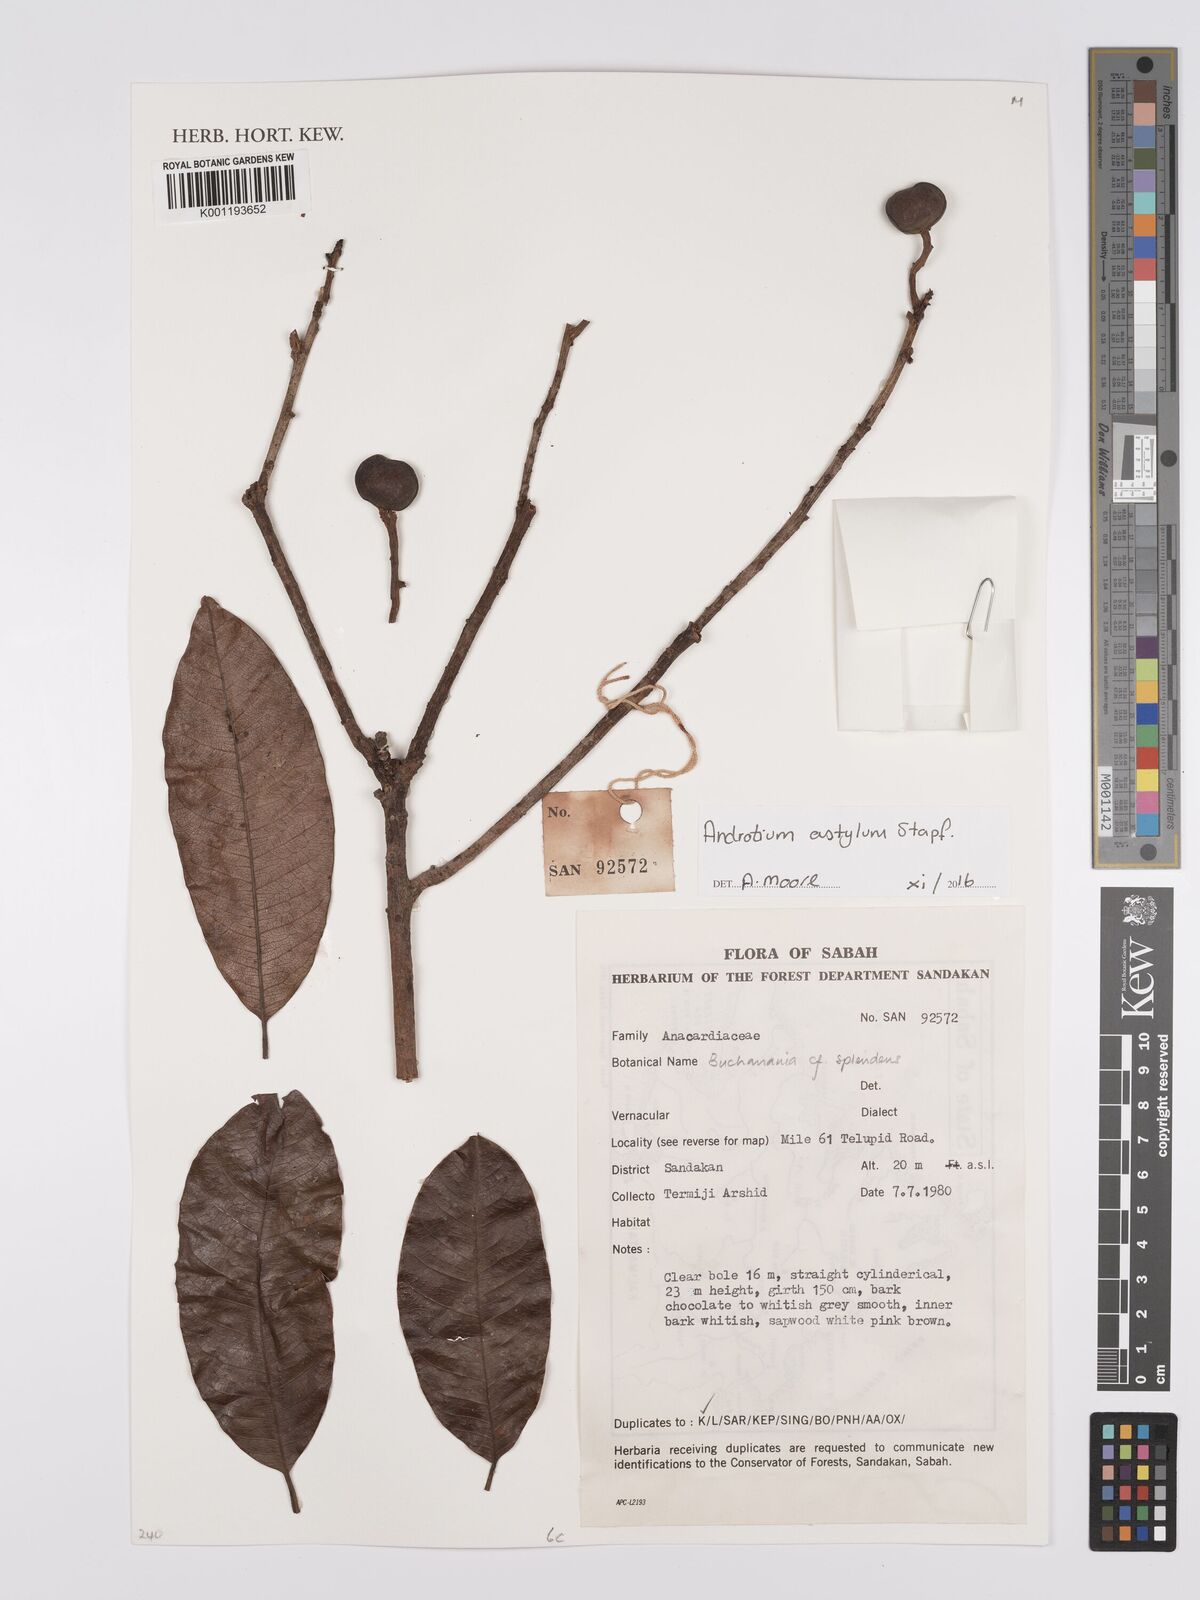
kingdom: Plantae
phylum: Tracheophyta
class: Magnoliopsida
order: Sapindales
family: Anacardiaceae
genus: Androtium
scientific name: Androtium astylum
